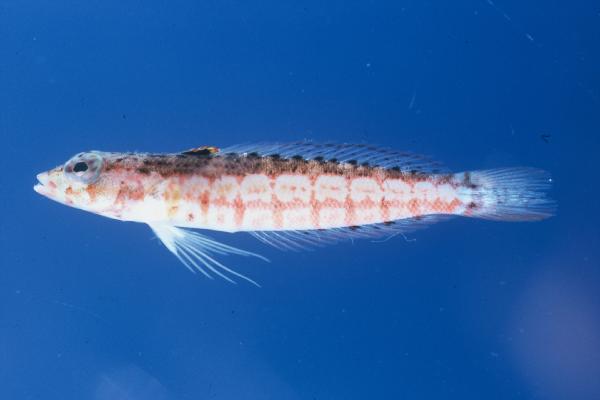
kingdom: Animalia
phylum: Chordata
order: Perciformes
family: Pinguipedidae
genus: Parapercis
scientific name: Parapercis punctulata
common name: Spotted sandperch
